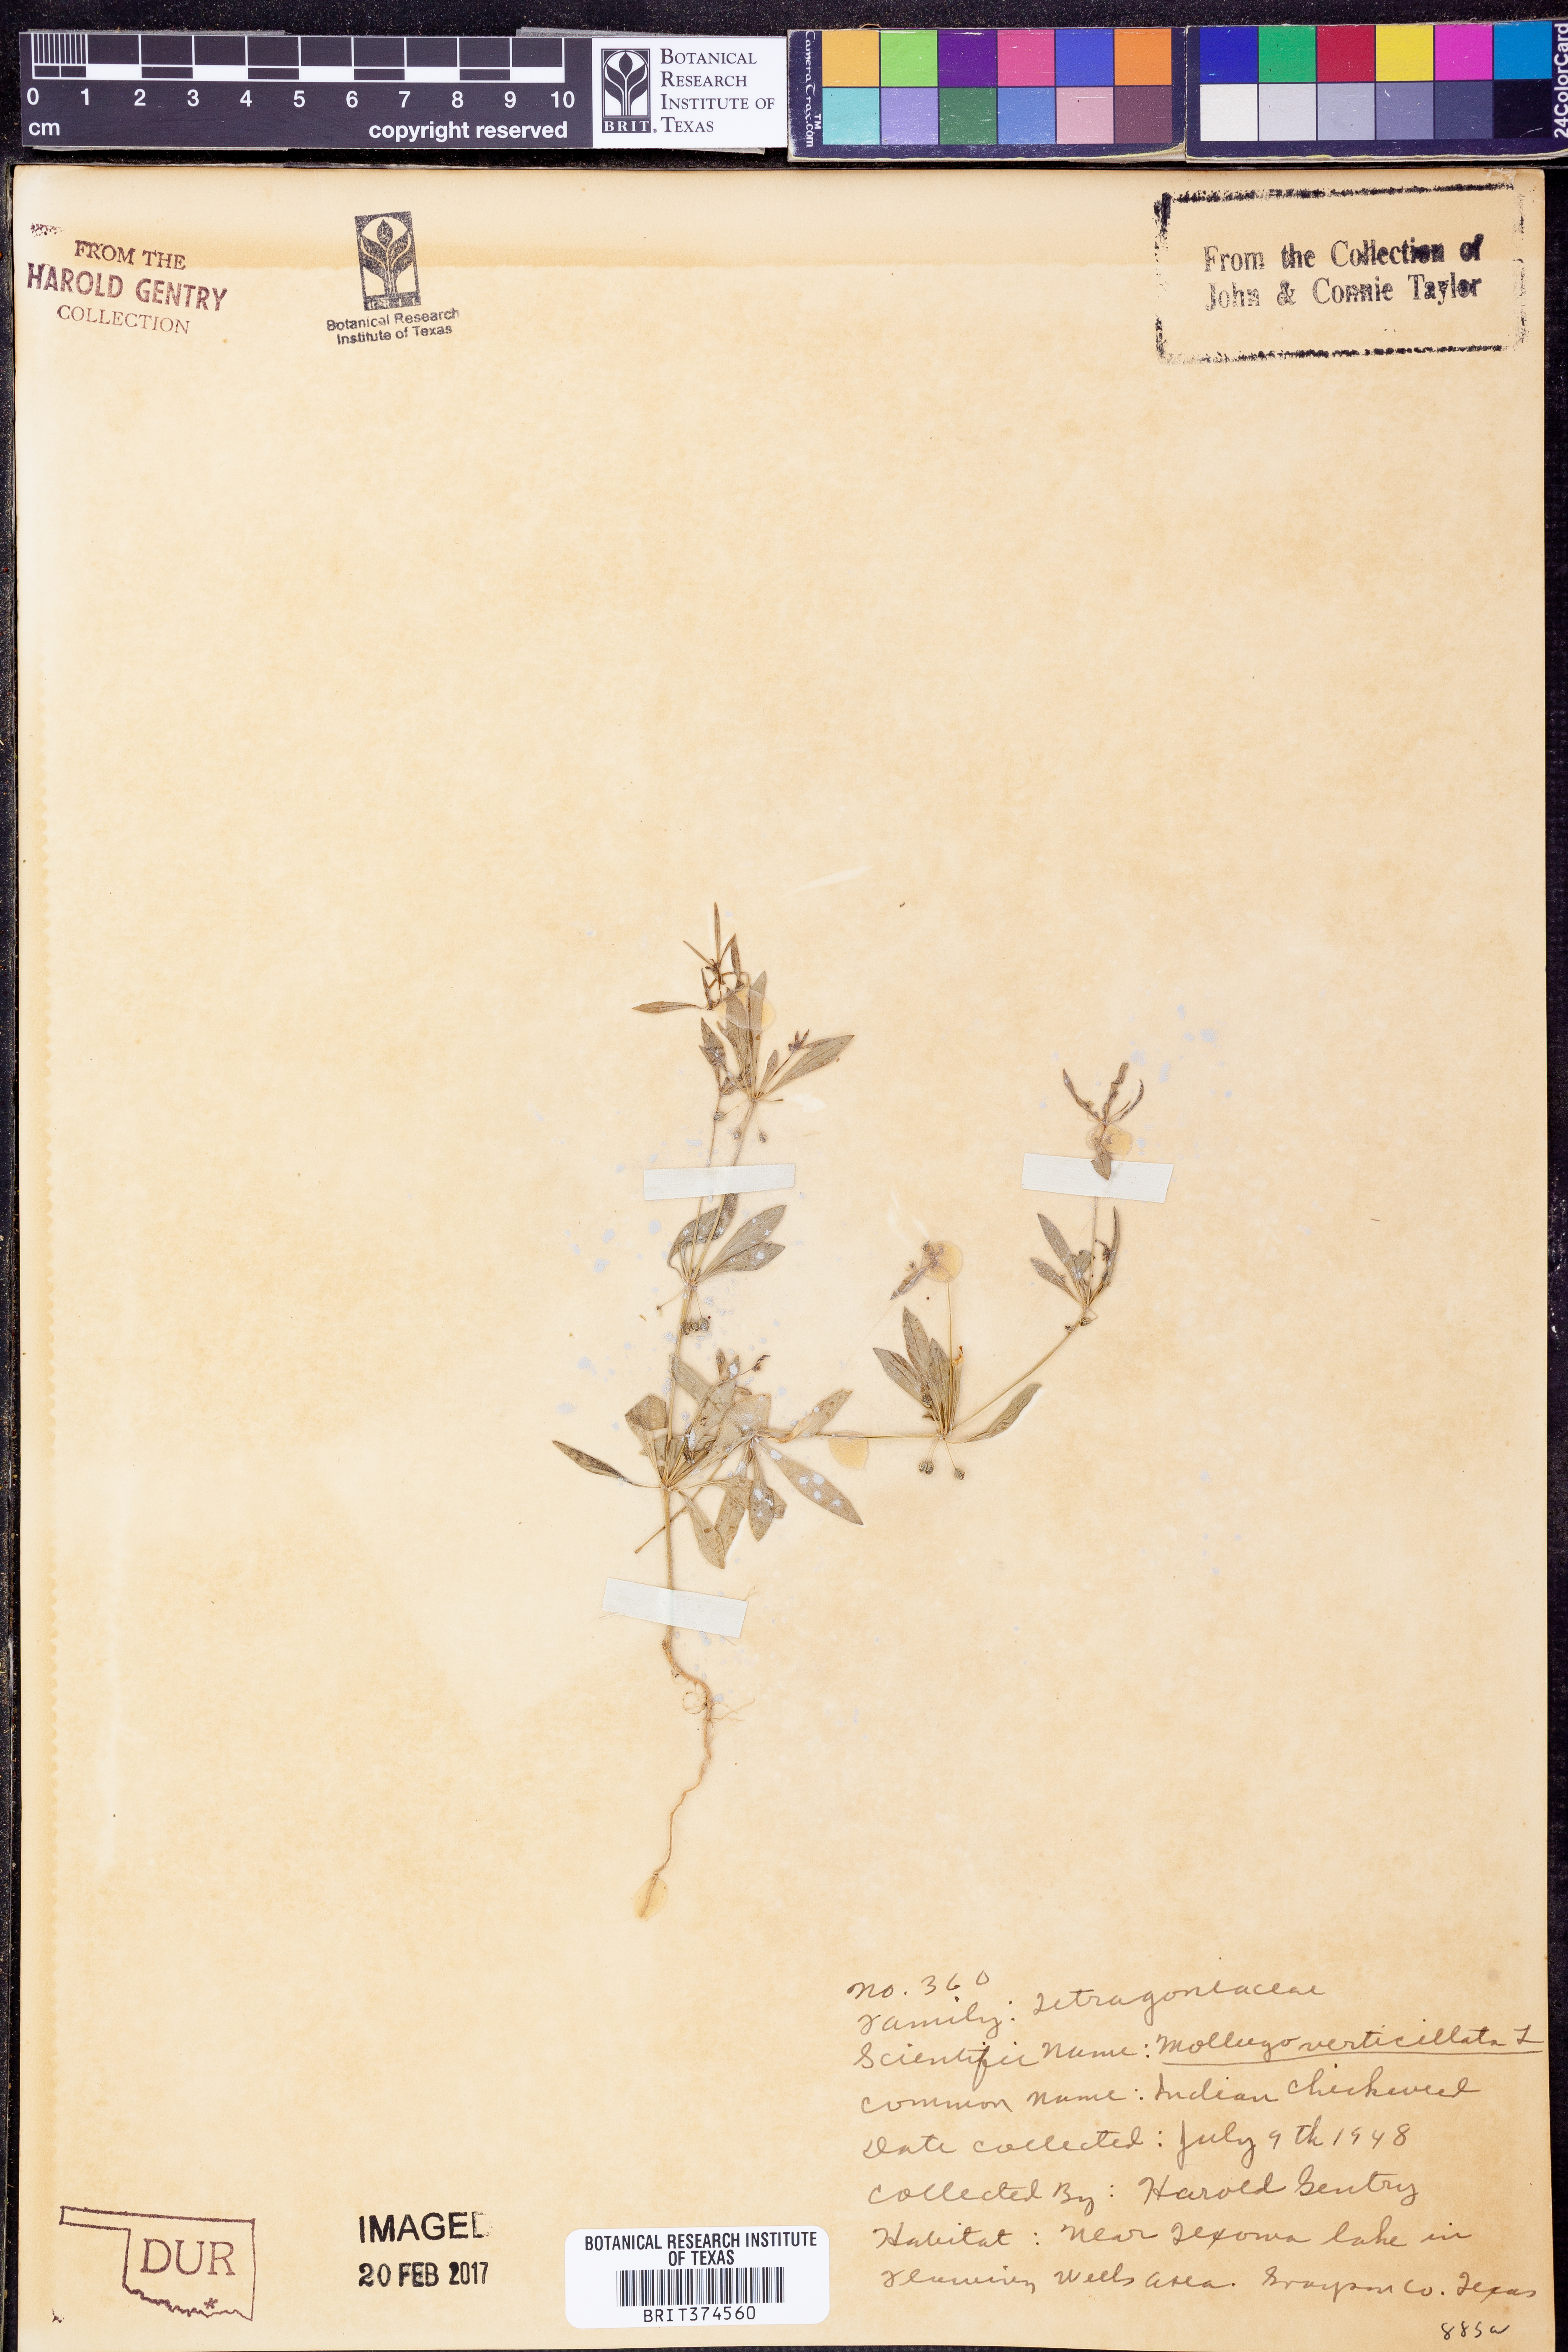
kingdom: Plantae
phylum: Tracheophyta
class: Magnoliopsida
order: Caryophyllales
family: Molluginaceae
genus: Mollugo
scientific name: Mollugo verticillata
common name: Green carpetweed
